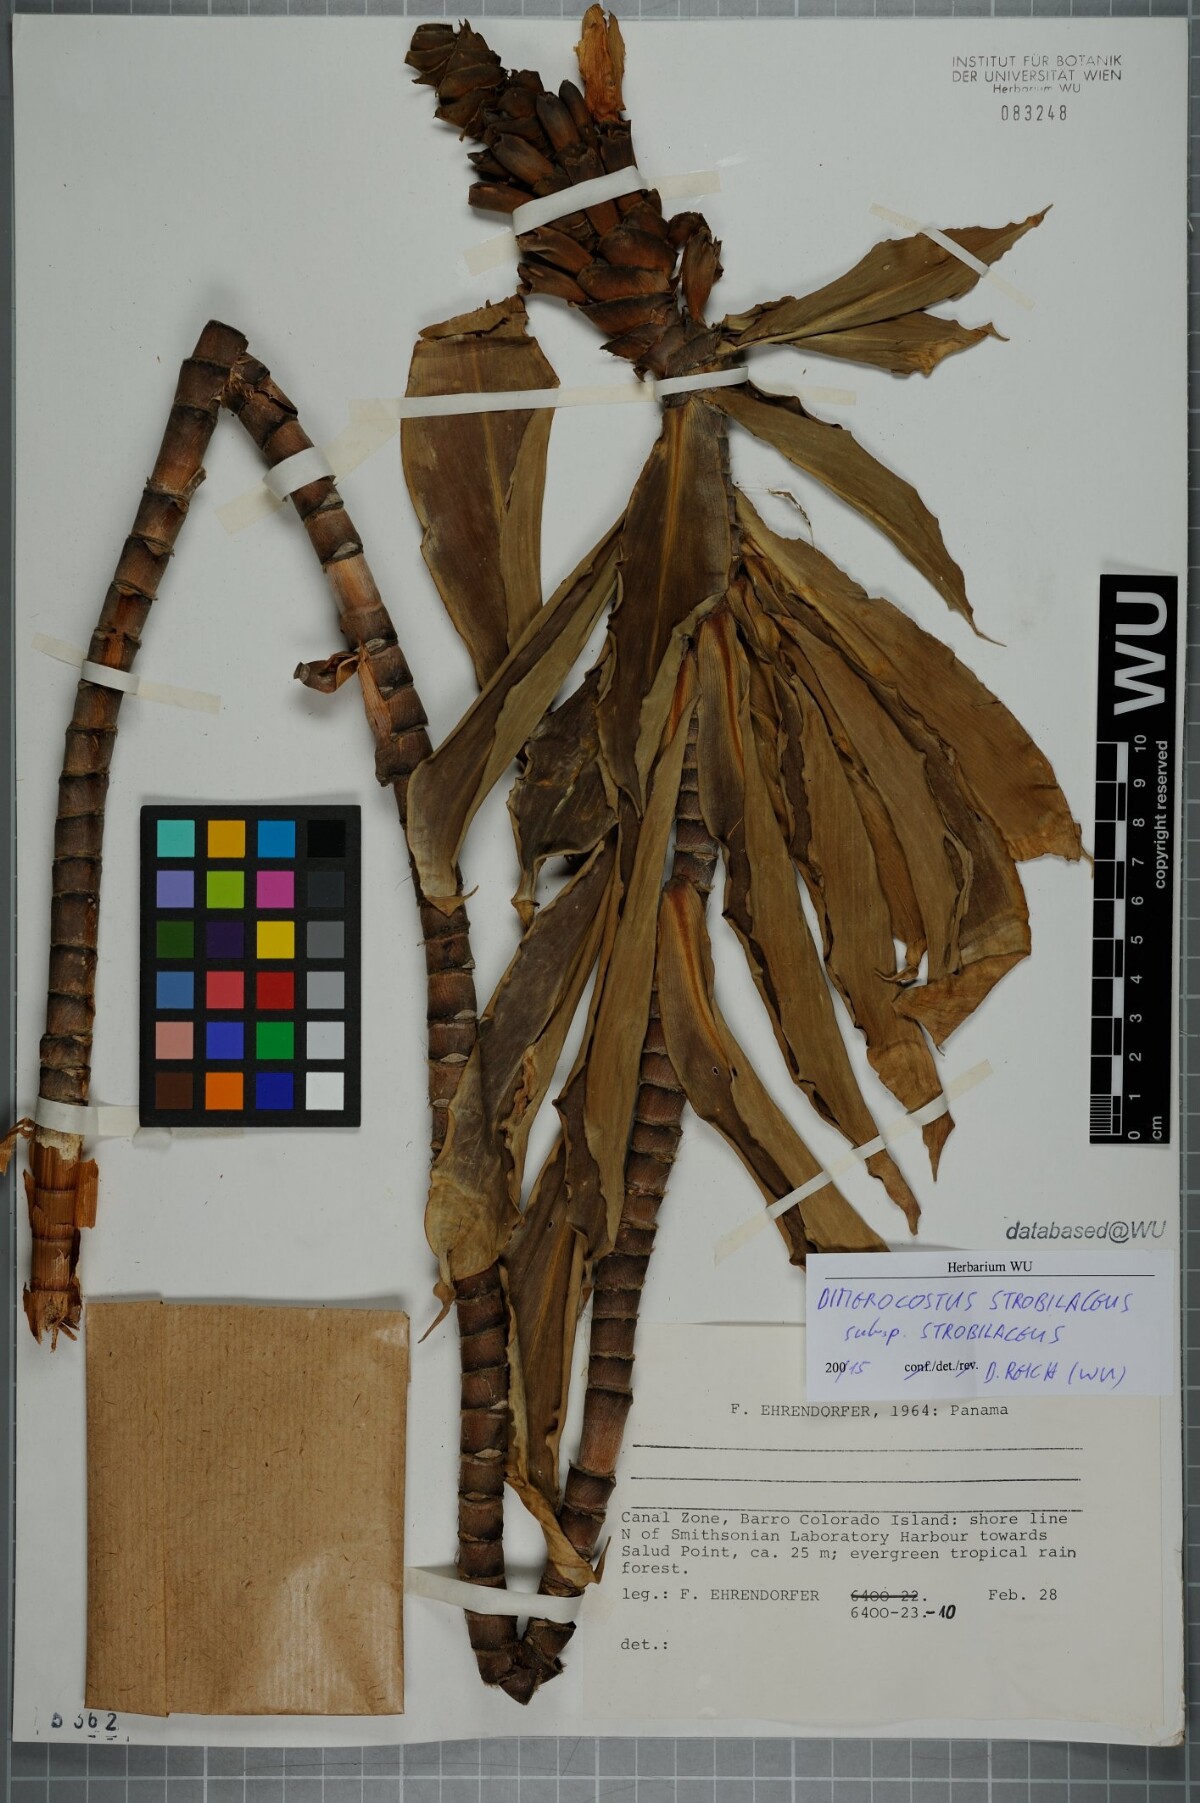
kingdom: Plantae
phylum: Tracheophyta
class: Liliopsida
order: Zingiberales
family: Costaceae
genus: Dimerocostus
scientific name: Dimerocostus strobilaceus
